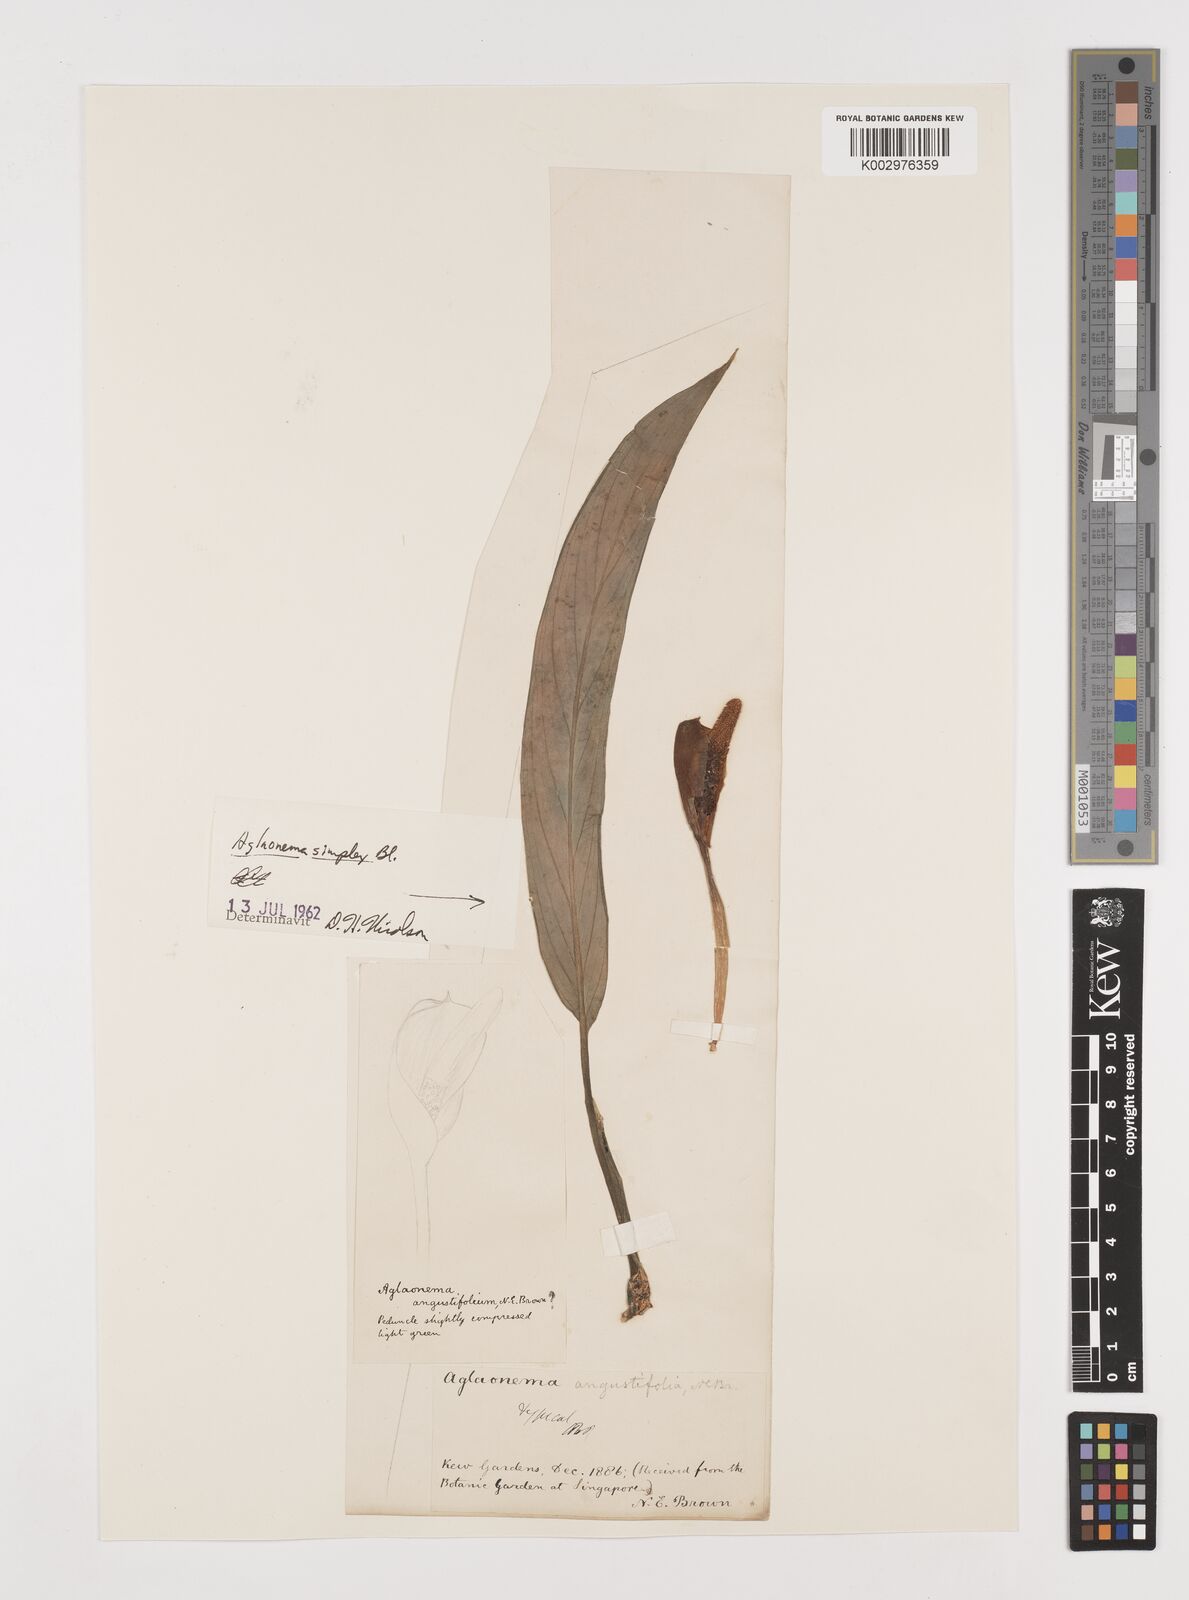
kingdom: Plantae
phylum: Tracheophyta
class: Liliopsida
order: Alismatales
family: Araceae
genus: Aglaonema
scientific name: Aglaonema simplex
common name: Malayan-sword
